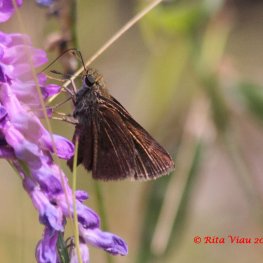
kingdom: Animalia
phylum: Arthropoda
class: Insecta
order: Lepidoptera
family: Hesperiidae
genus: Euphyes
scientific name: Euphyes vestris
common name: Dun Skipper
